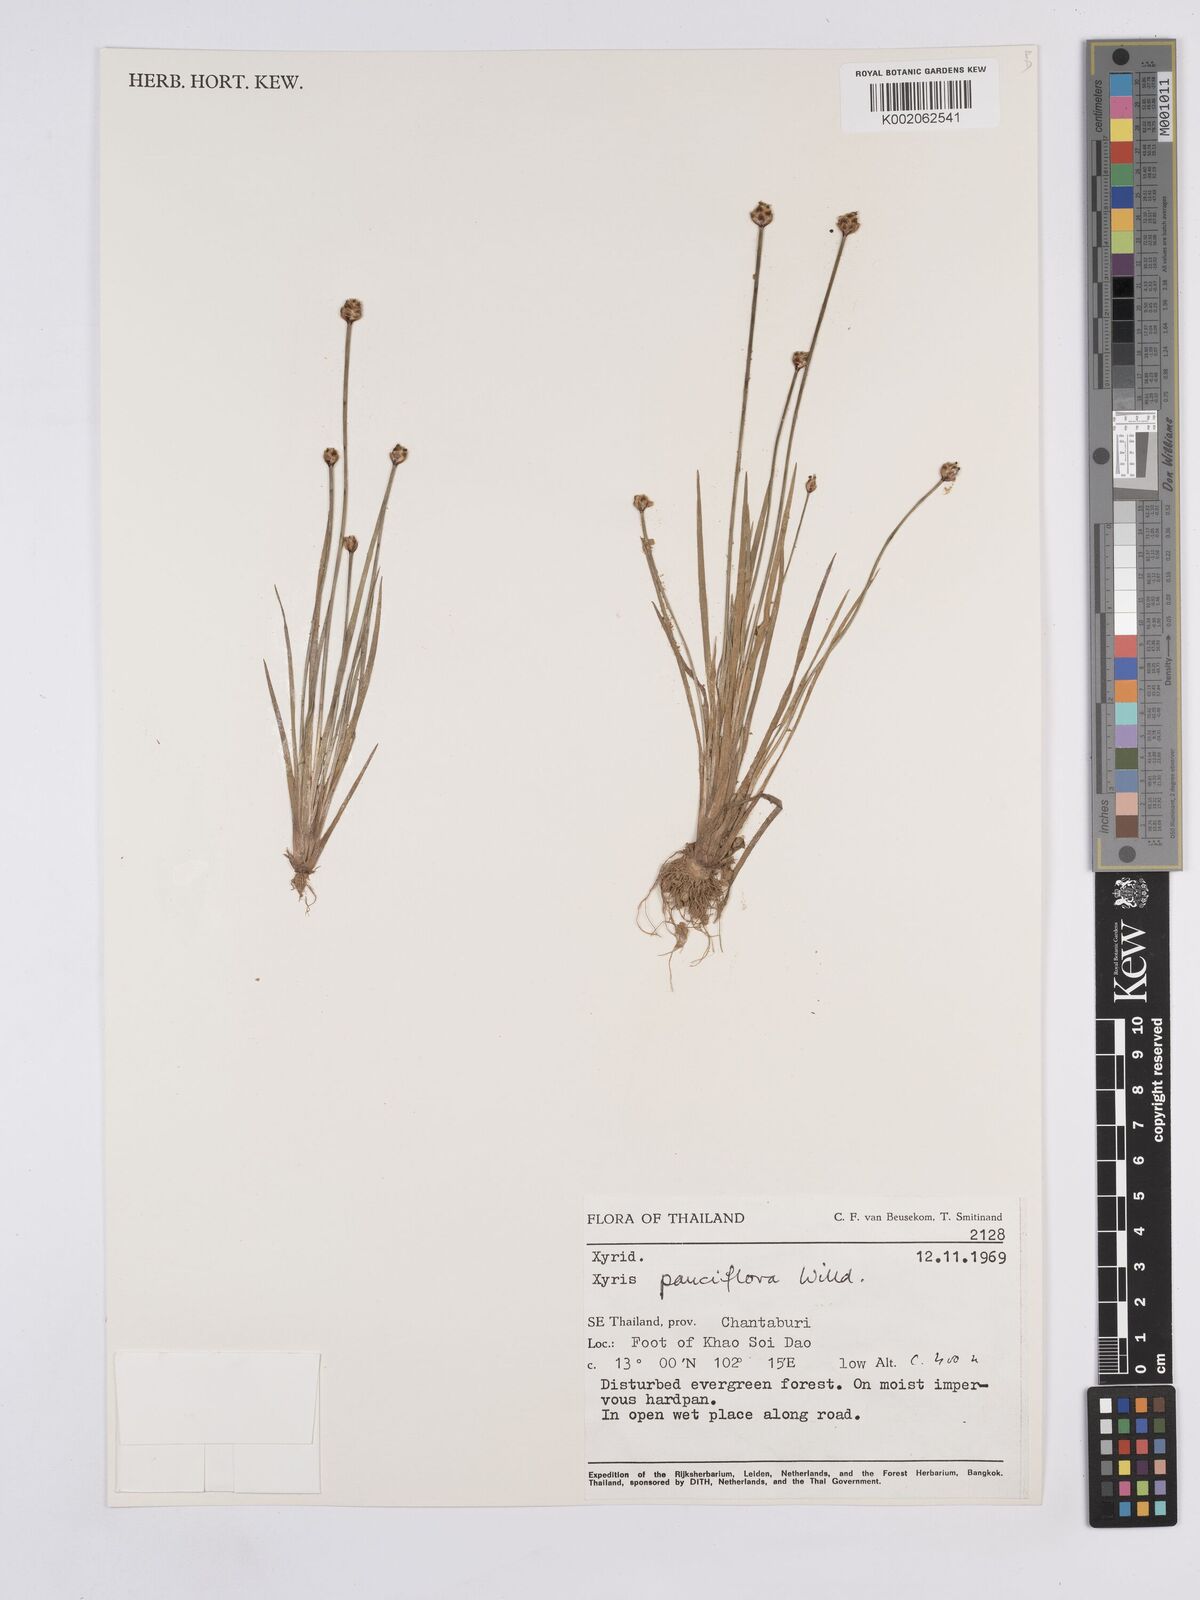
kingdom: Plantae
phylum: Tracheophyta
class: Liliopsida
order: Poales
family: Xyridaceae
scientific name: Xyridaceae
